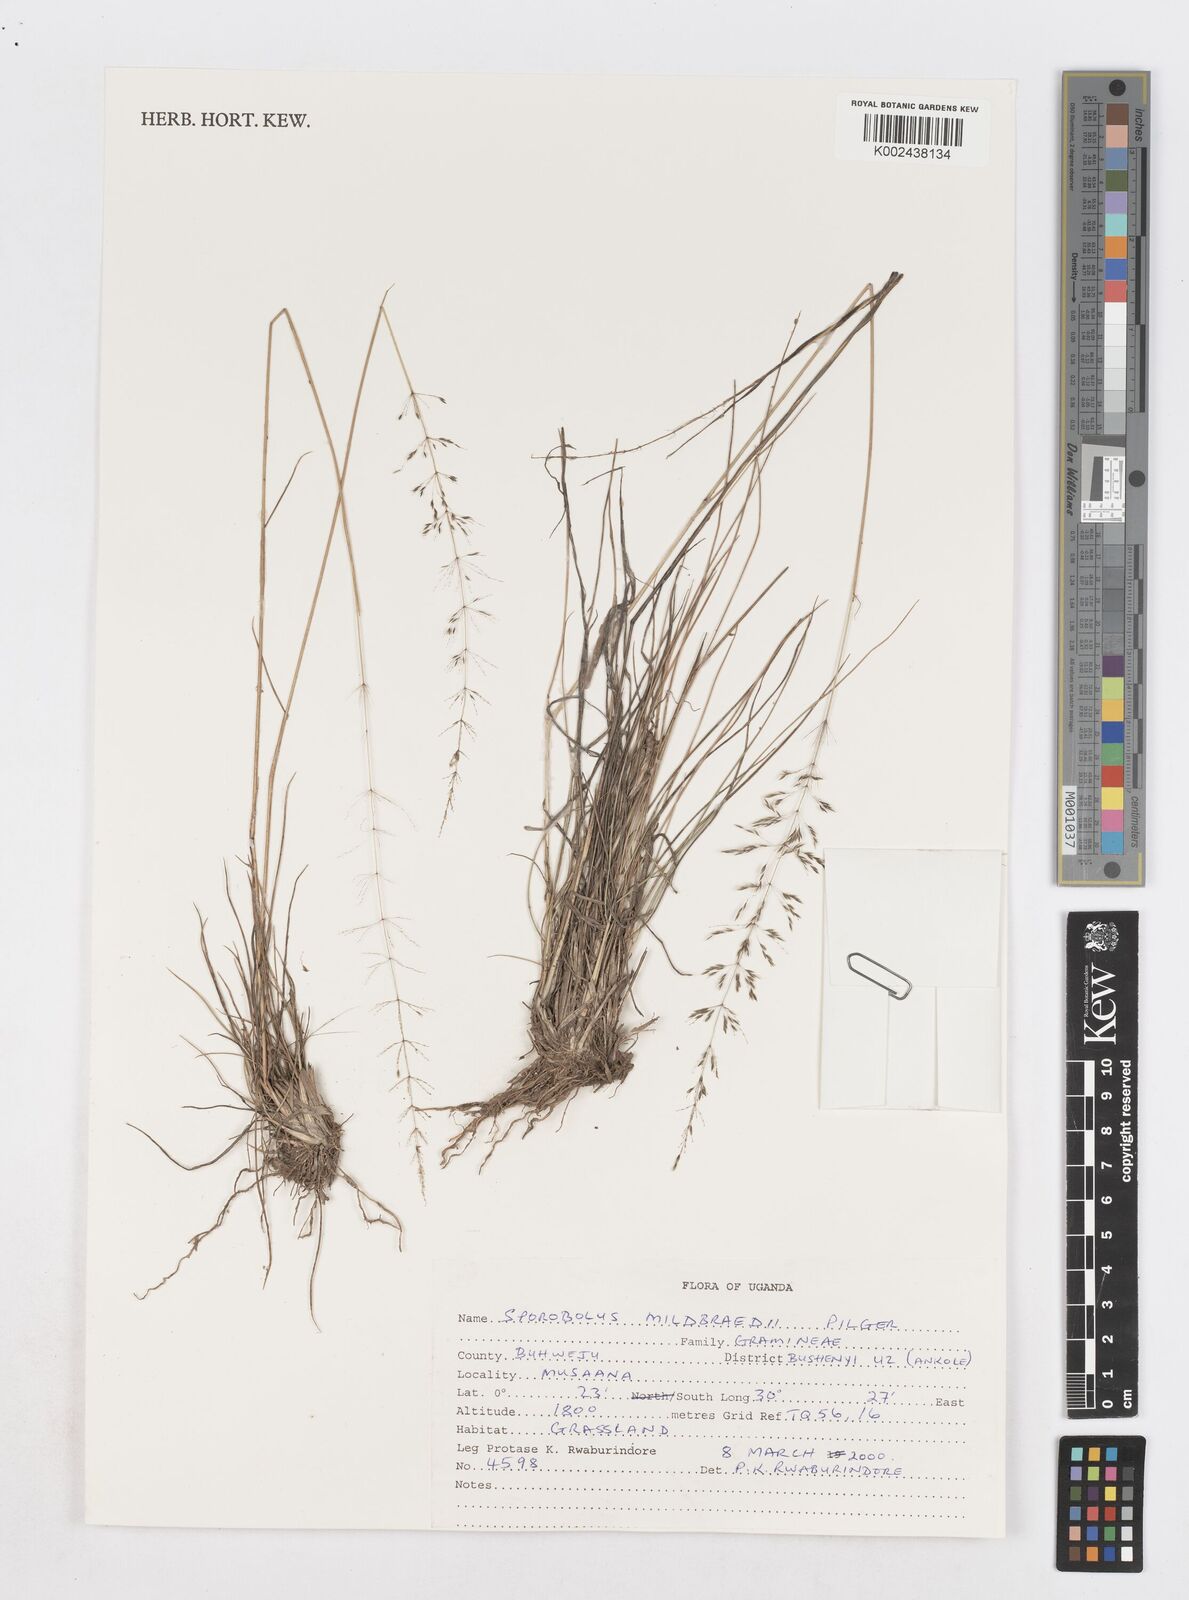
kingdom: Plantae
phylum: Tracheophyta
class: Liliopsida
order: Poales
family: Poaceae
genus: Sporobolus
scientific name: Sporobolus mildbraedii
